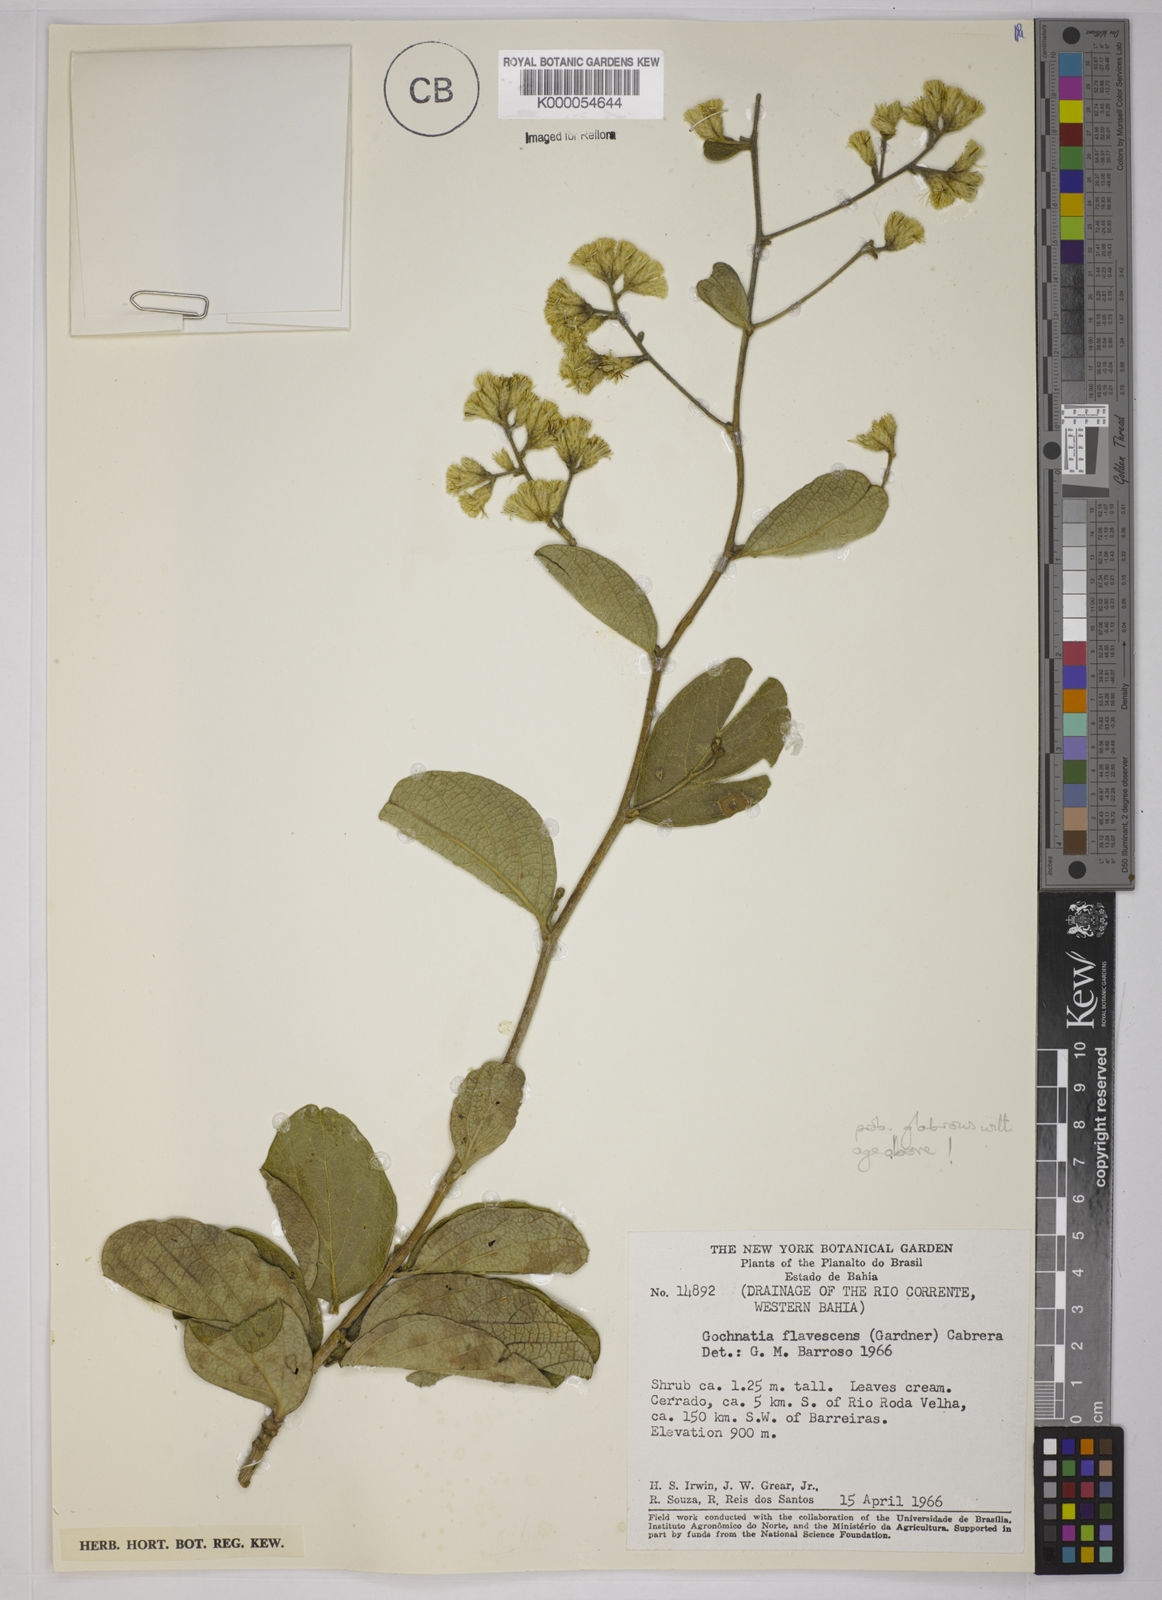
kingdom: Plantae
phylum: Tracheophyta
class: Magnoliopsida
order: Asterales
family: Asteraceae
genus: Moquiniastrum
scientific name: Moquiniastrum blanchetianum
